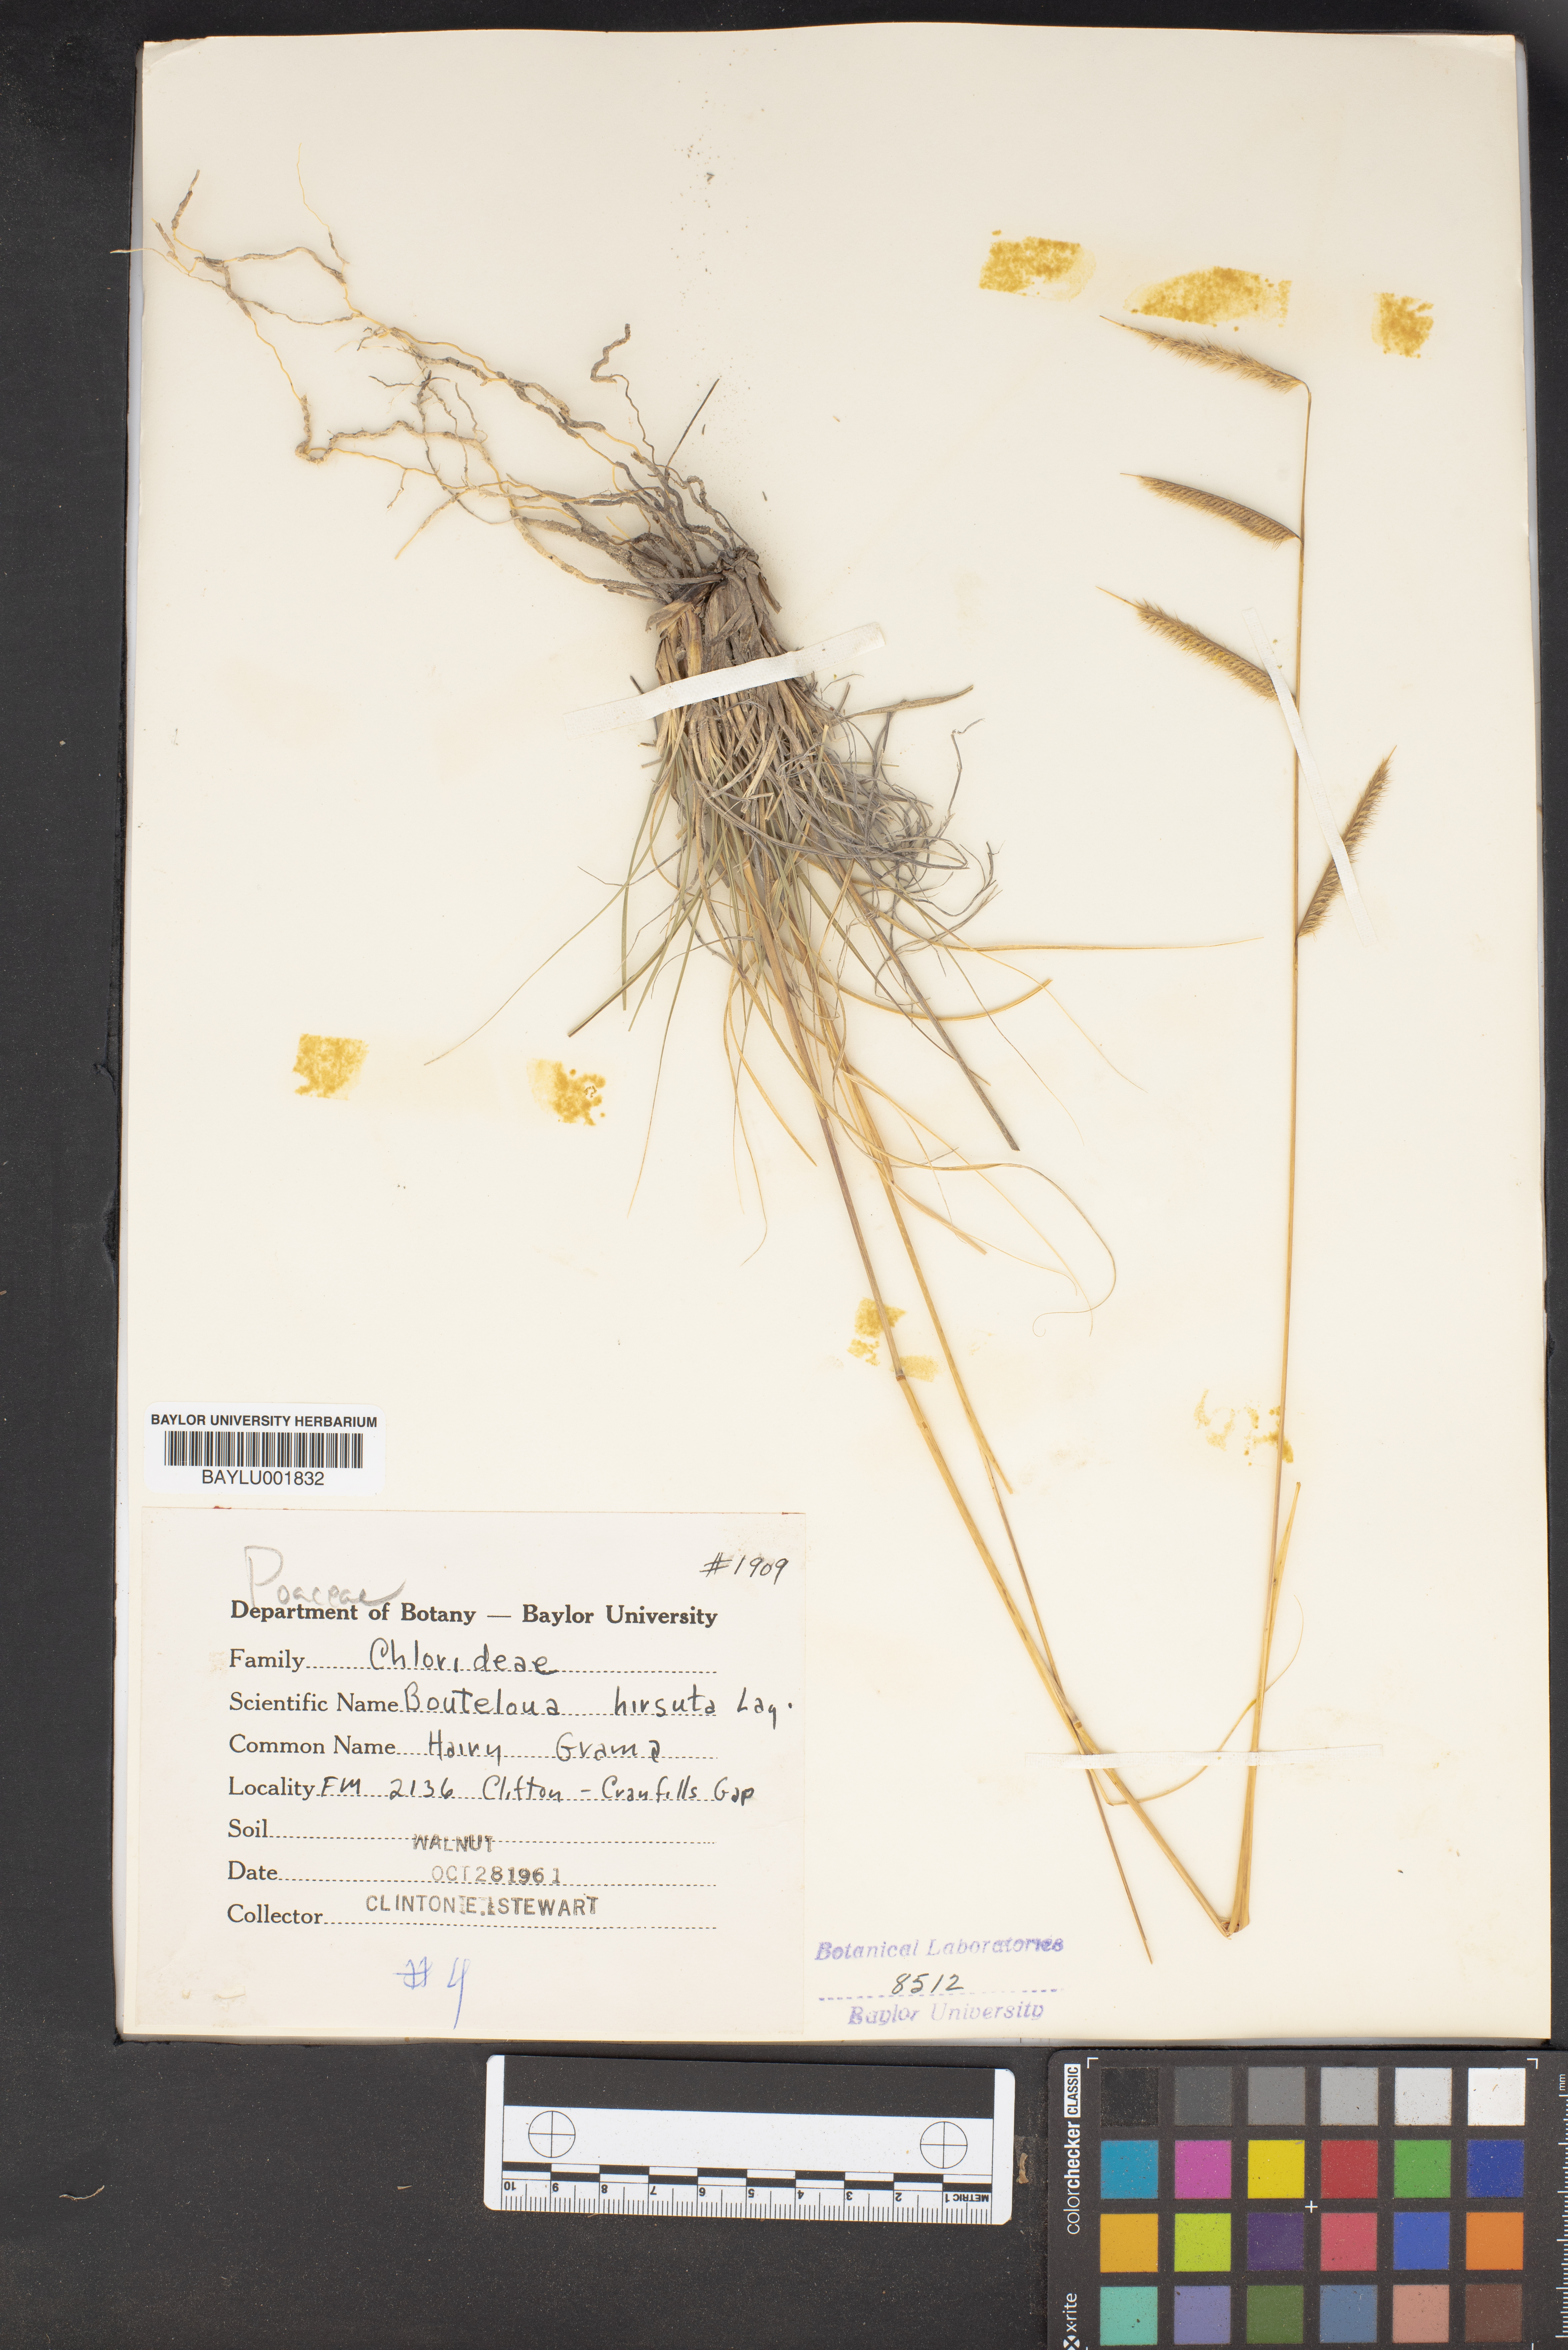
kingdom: Plantae
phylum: Tracheophyta
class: Liliopsida
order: Poales
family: Poaceae
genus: Bouteloua
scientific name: Bouteloua hirsuta
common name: Hairy grama
